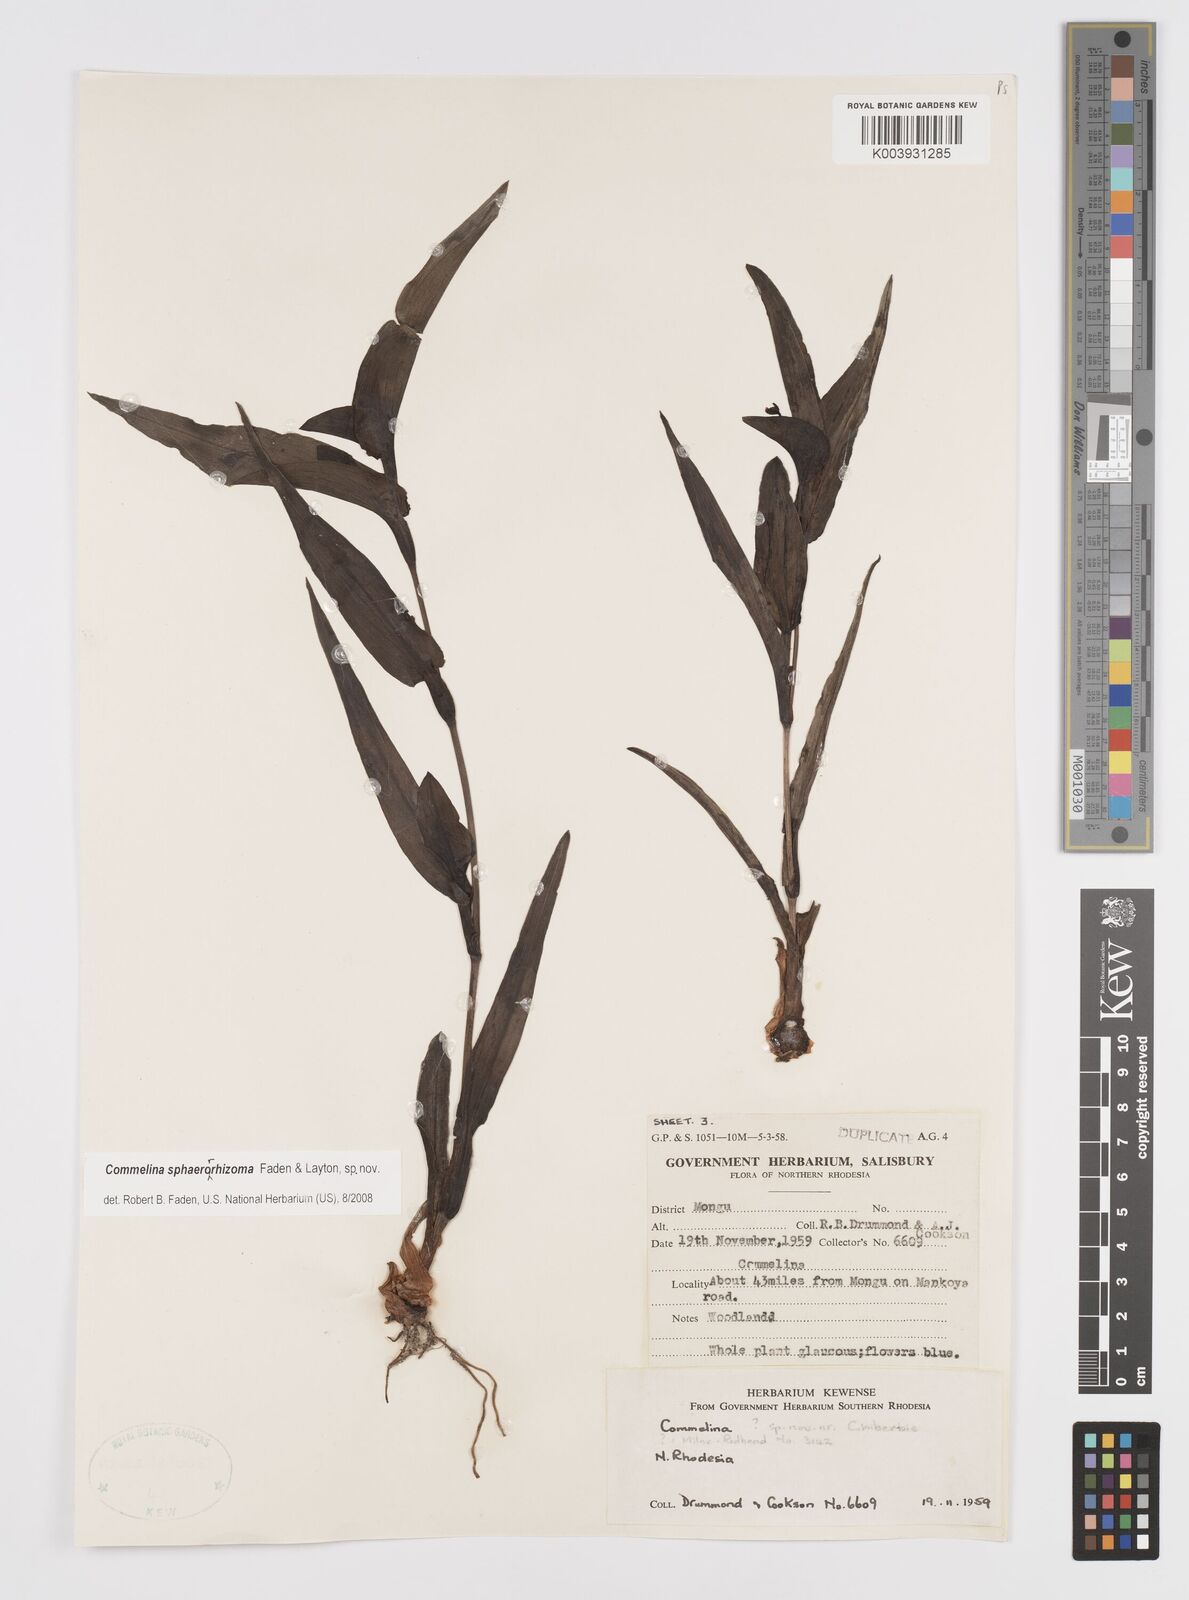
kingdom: Plantae
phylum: Tracheophyta
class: Liliopsida
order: Commelinales
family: Commelinaceae
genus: Commelina
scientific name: Commelina sphaerorrhizoma
